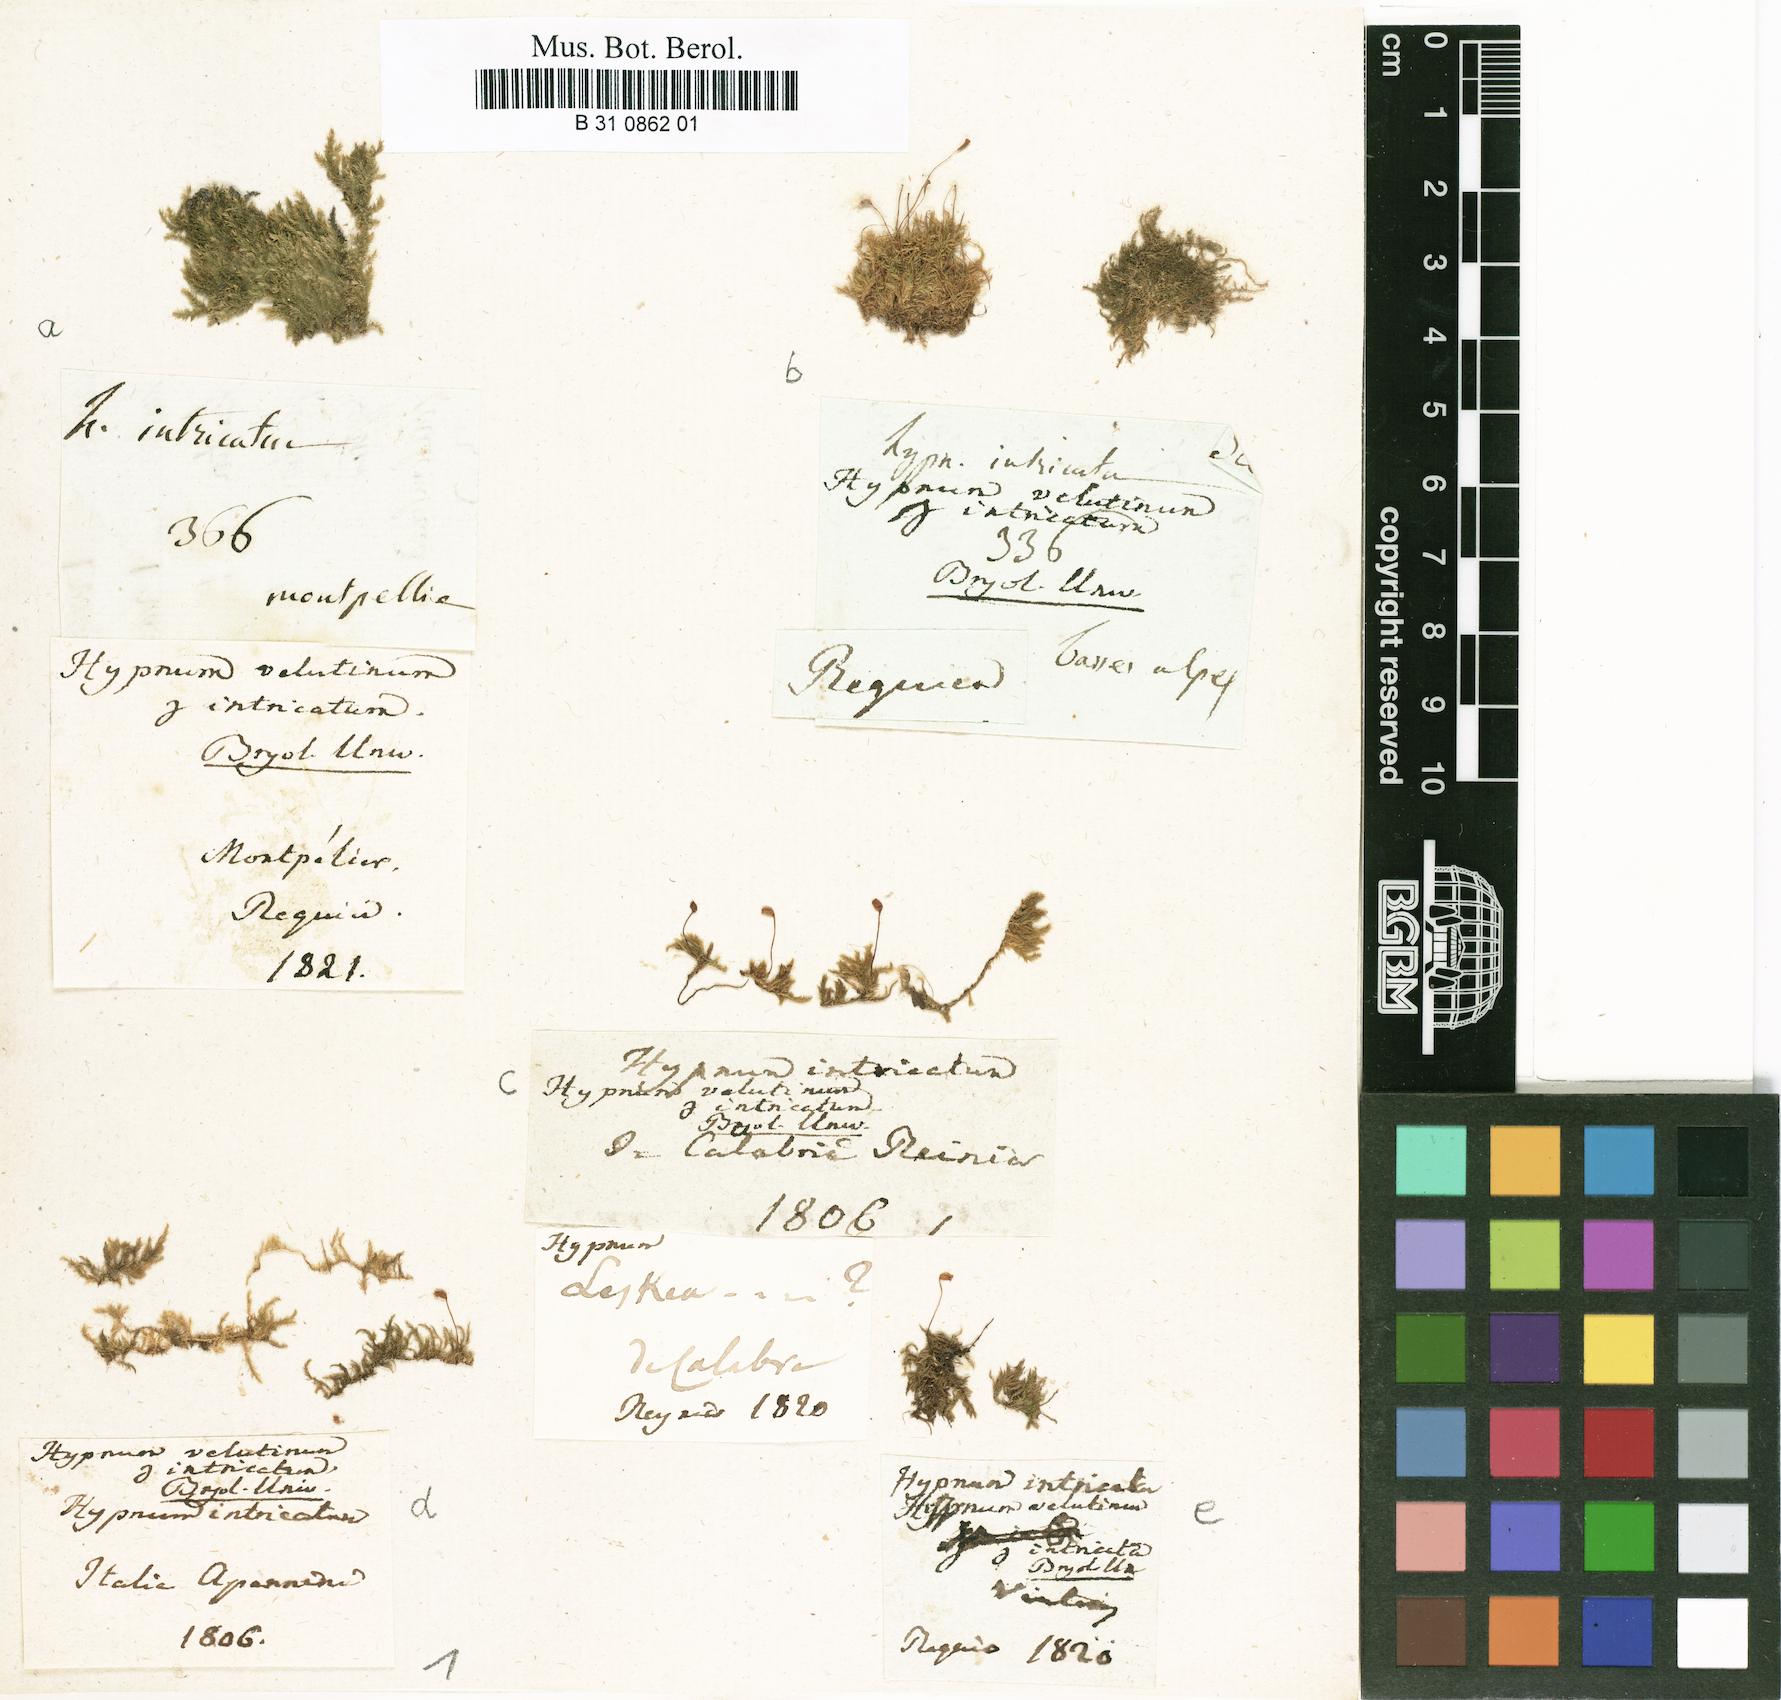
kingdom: Plantae
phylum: Bryophyta
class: Bryopsida
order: Hypnales
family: Brachytheciaceae
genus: Brachytheciastrum
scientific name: Brachytheciastrum velutinum
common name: Velvet feather-moss
